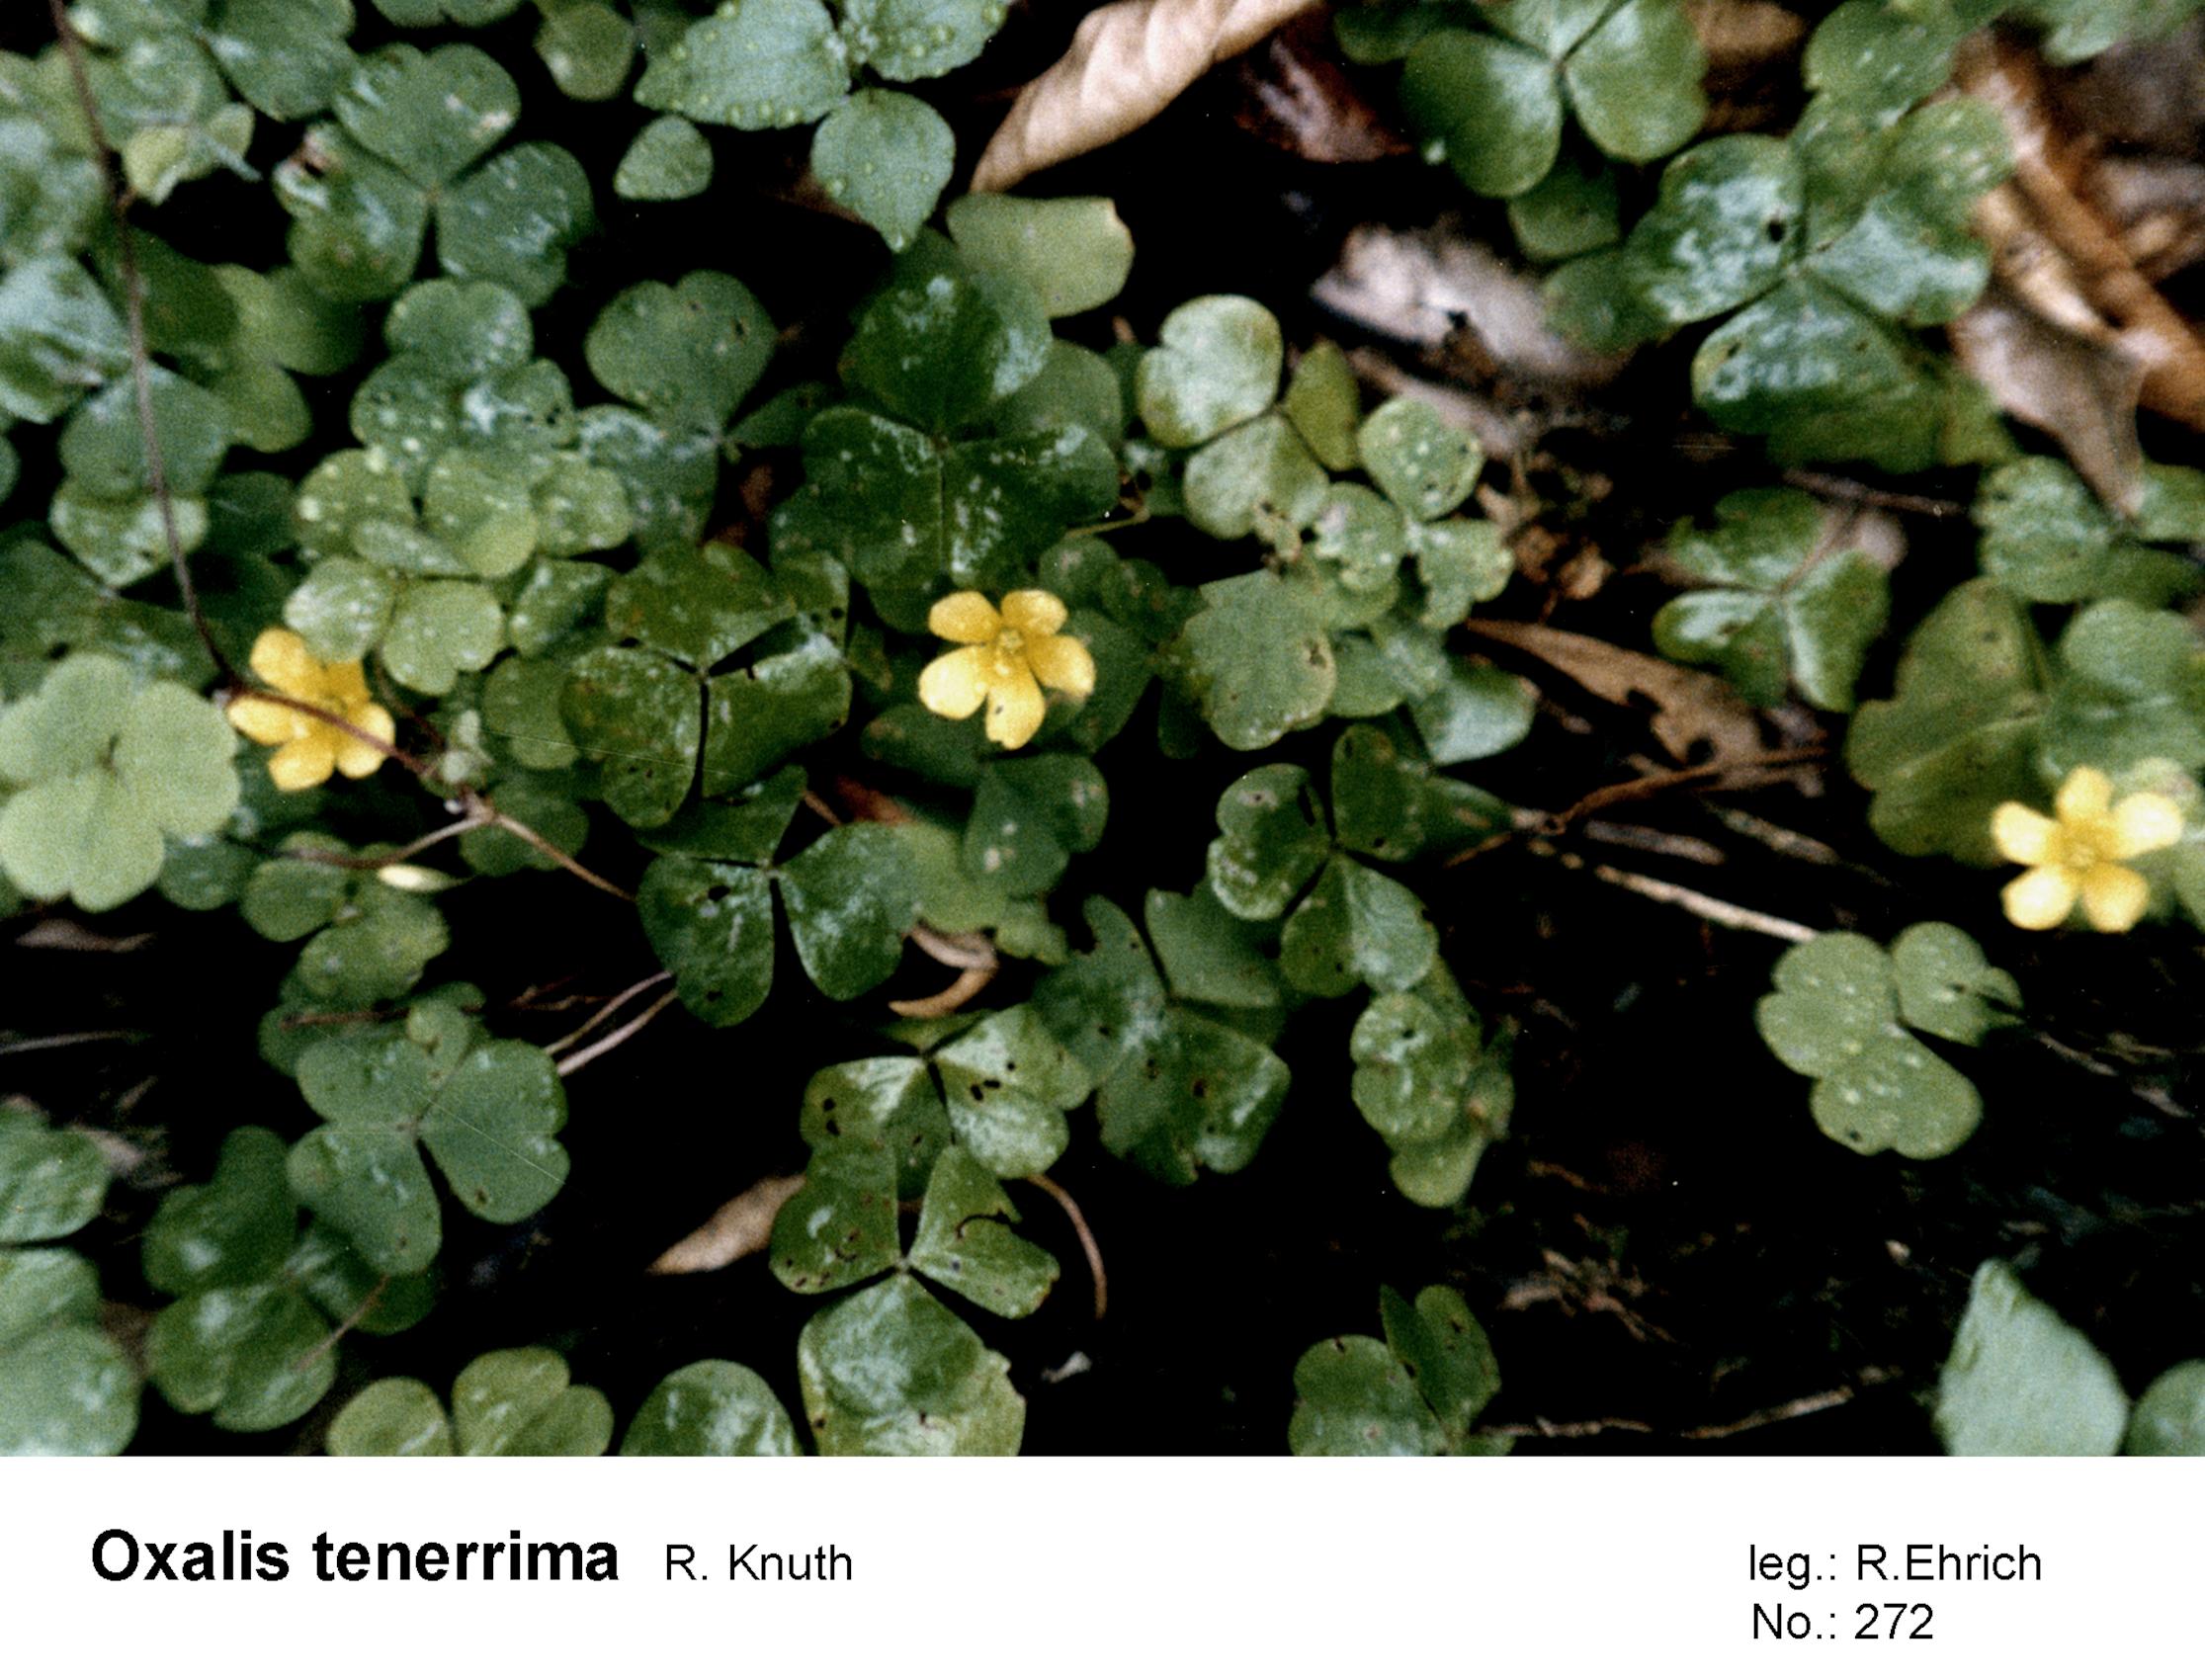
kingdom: Plantae
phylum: Tracheophyta
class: Magnoliopsida
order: Oxalidales
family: Oxalidaceae
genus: Oxalis
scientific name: Oxalis tenerrima
